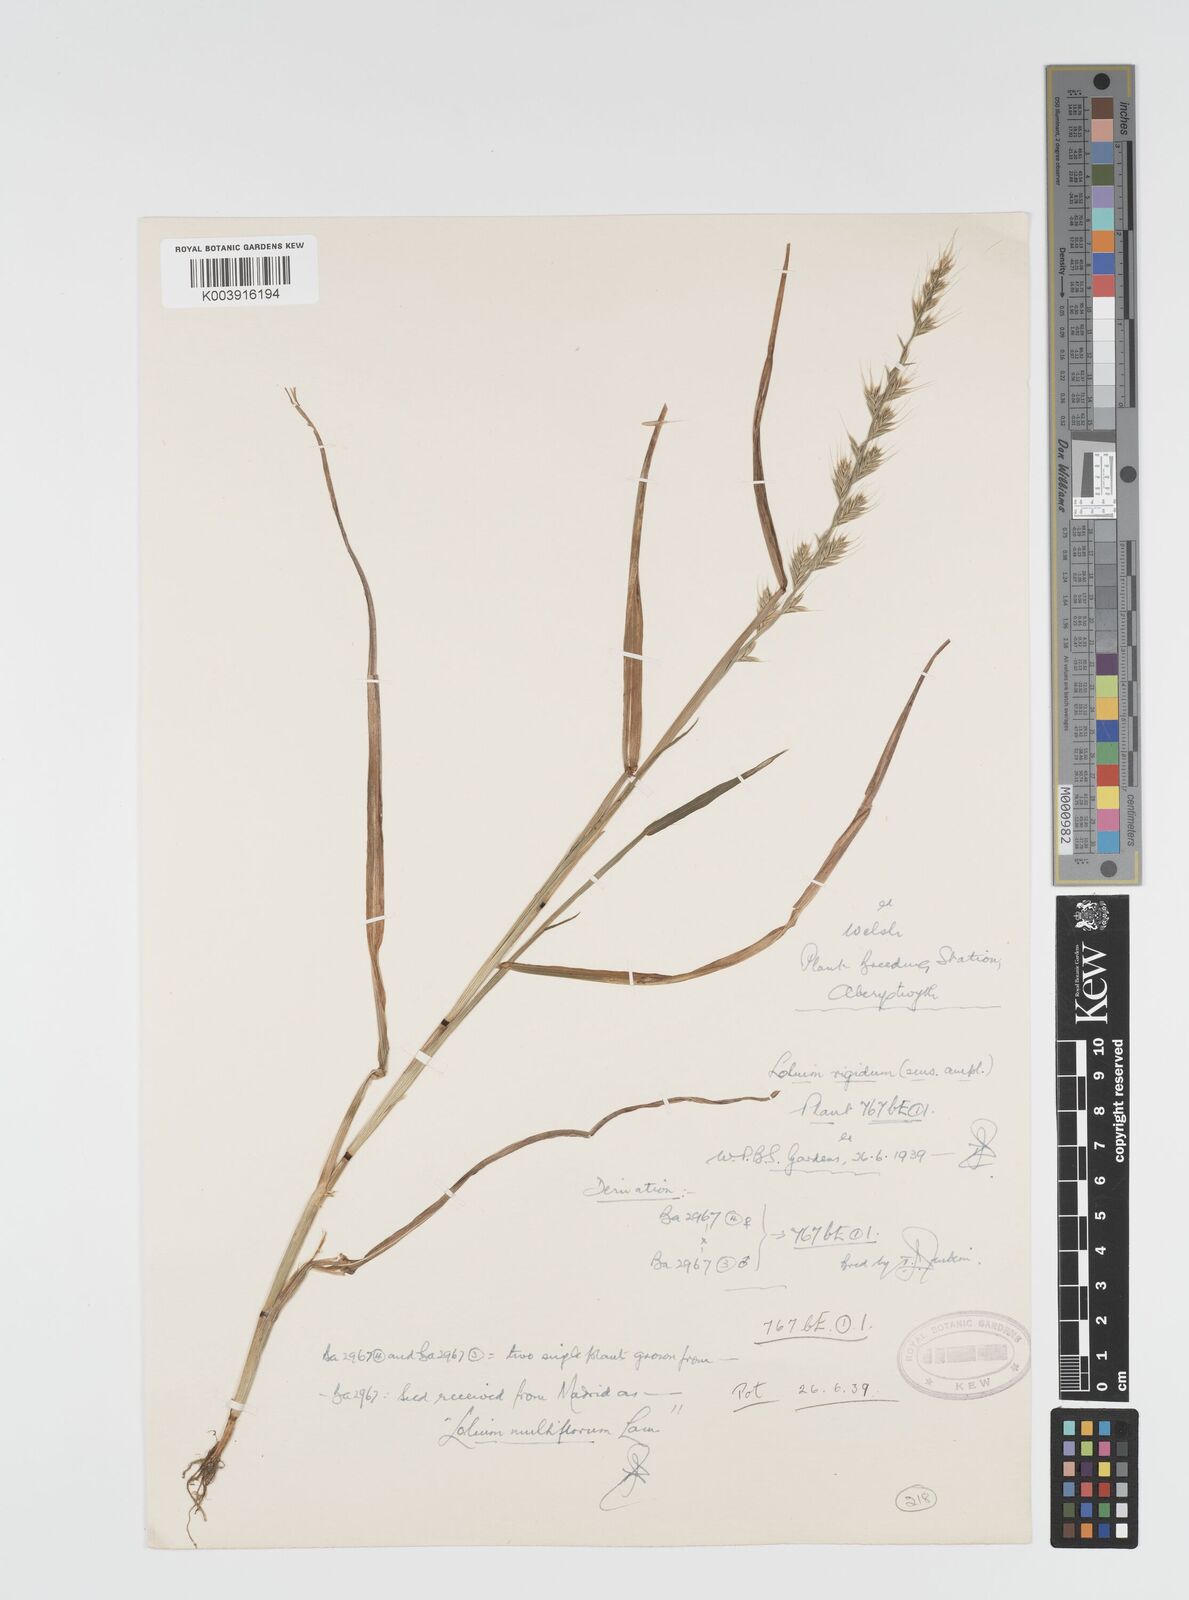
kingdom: Plantae
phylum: Tracheophyta
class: Liliopsida
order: Poales
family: Poaceae
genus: Lolium
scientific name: Lolium rigidum
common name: Wimmera ryegrass
